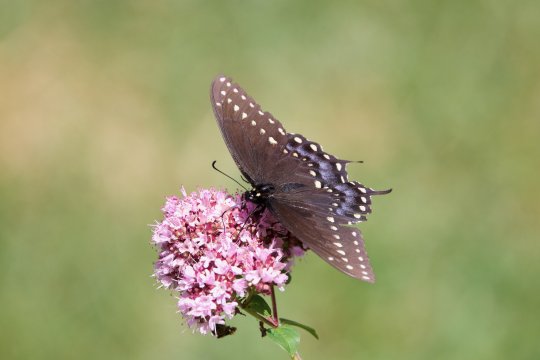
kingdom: Animalia
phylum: Arthropoda
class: Insecta
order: Lepidoptera
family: Papilionidae
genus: Papilio
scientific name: Papilio polyxenes
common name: Black Swallowtail
